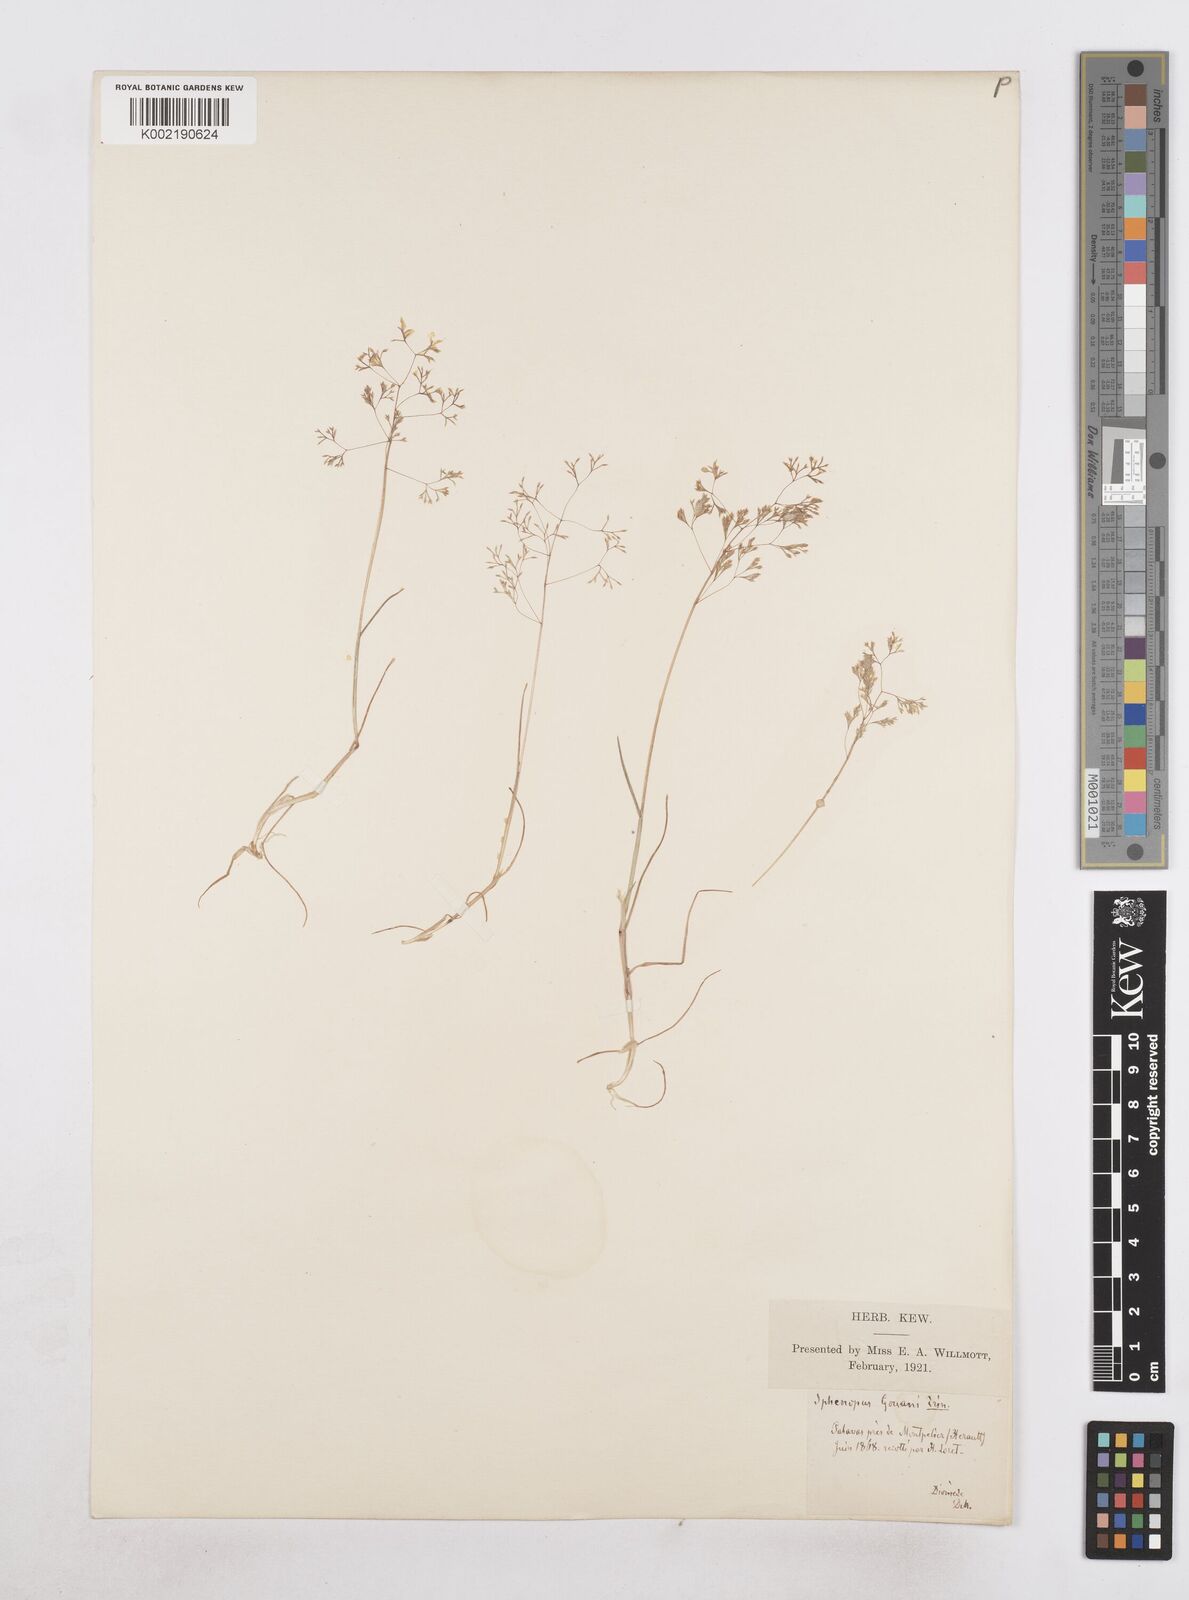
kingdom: Plantae
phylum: Tracheophyta
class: Liliopsida
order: Poales
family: Poaceae
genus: Sphenopus
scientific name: Sphenopus divaricatus
